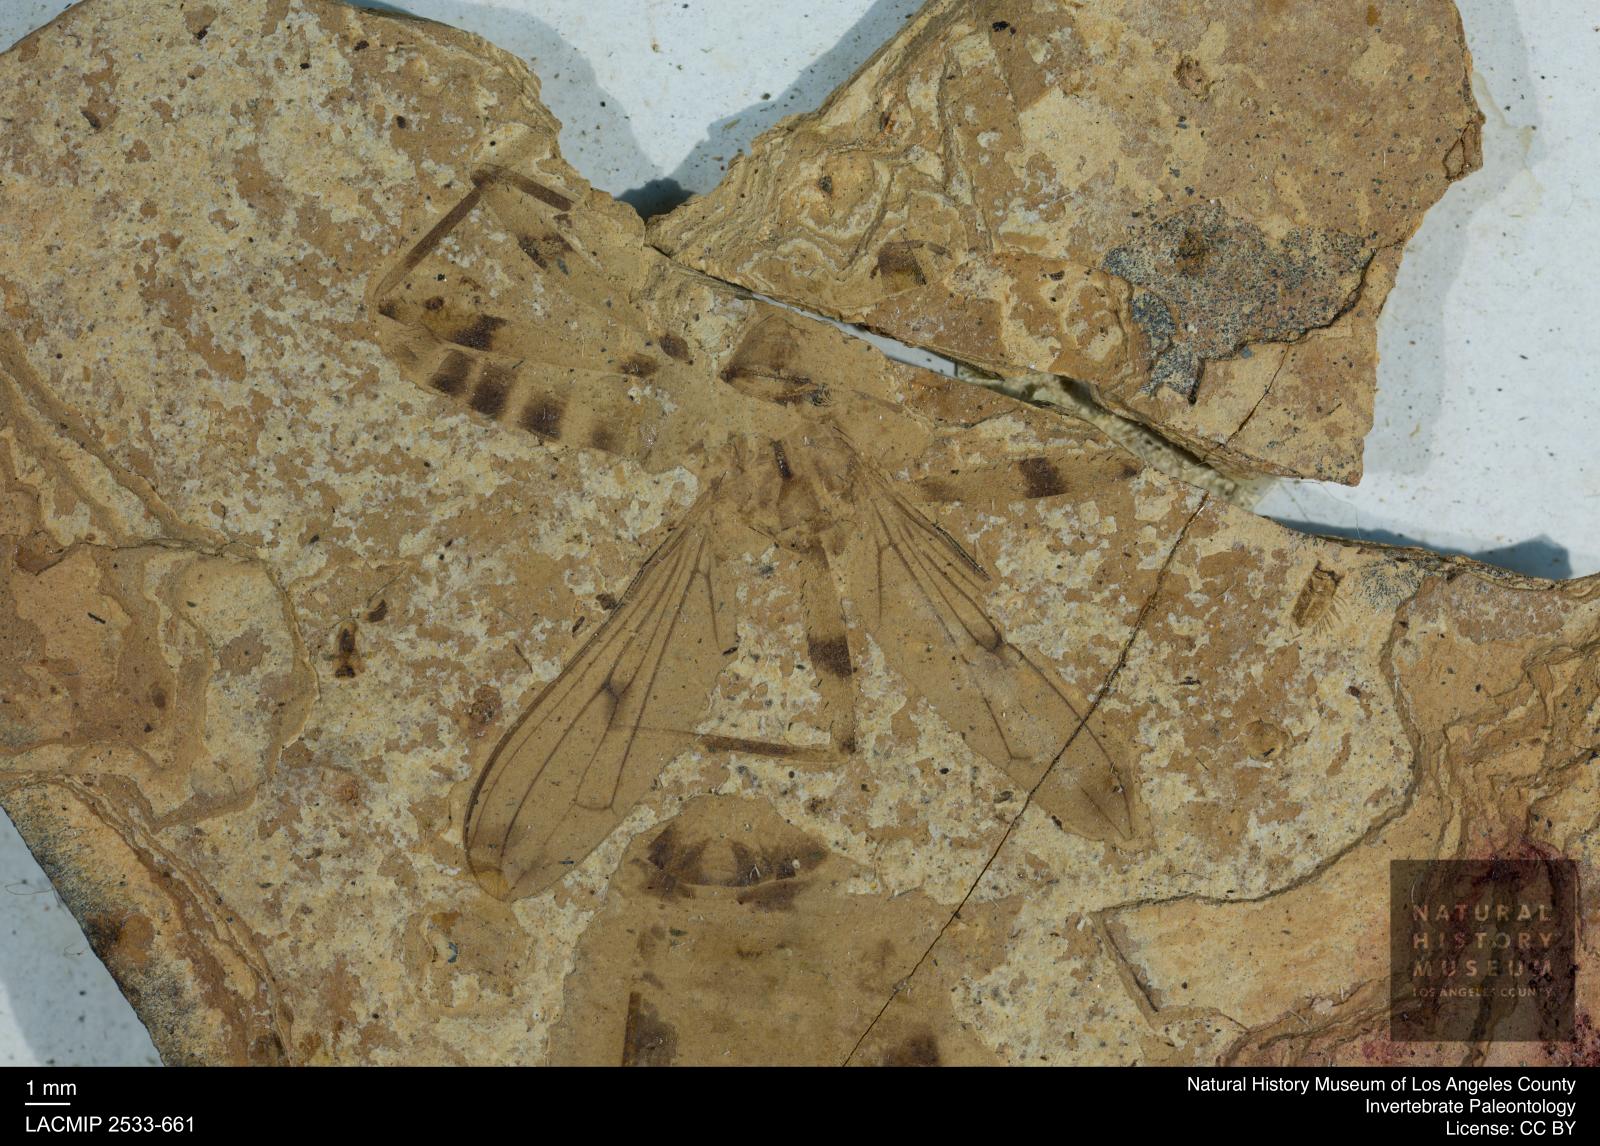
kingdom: Animalia
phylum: Arthropoda
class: Insecta
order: Diptera
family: Micropezidae
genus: Calobata
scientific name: Calobata rottensis
